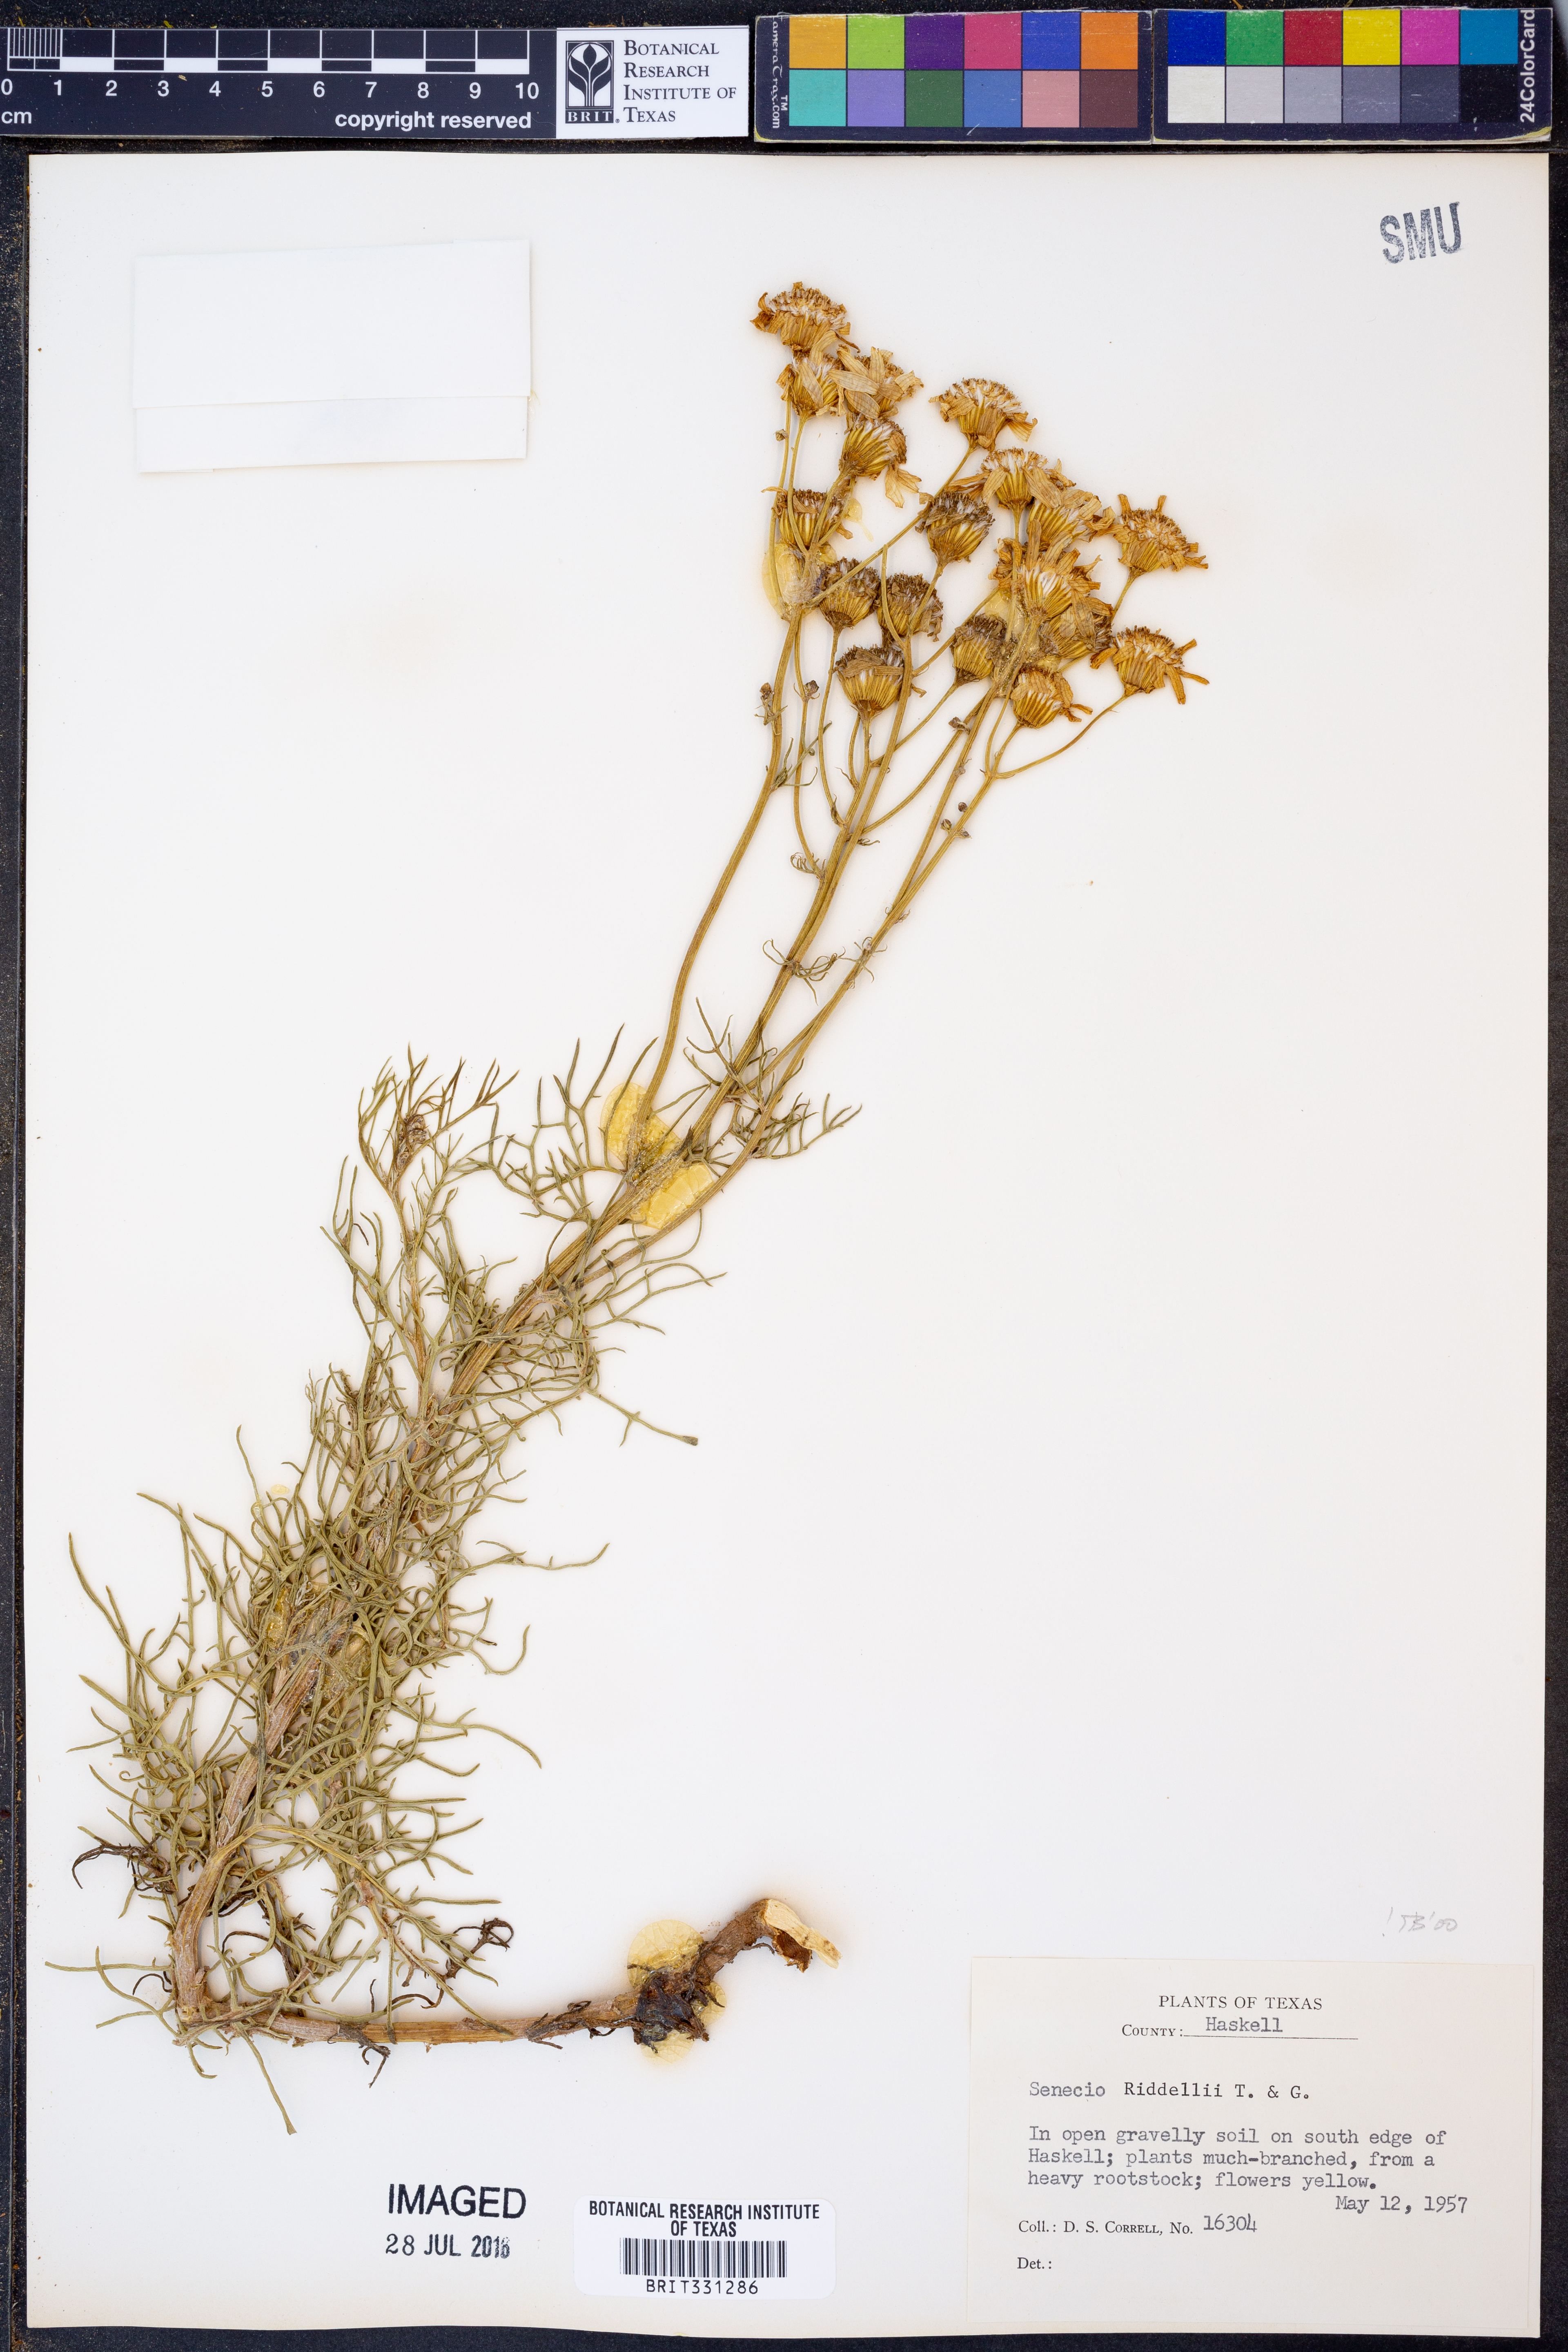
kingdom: Plantae
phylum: Tracheophyta
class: Magnoliopsida
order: Asterales
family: Asteraceae
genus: Senecio
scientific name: Senecio riddellii
